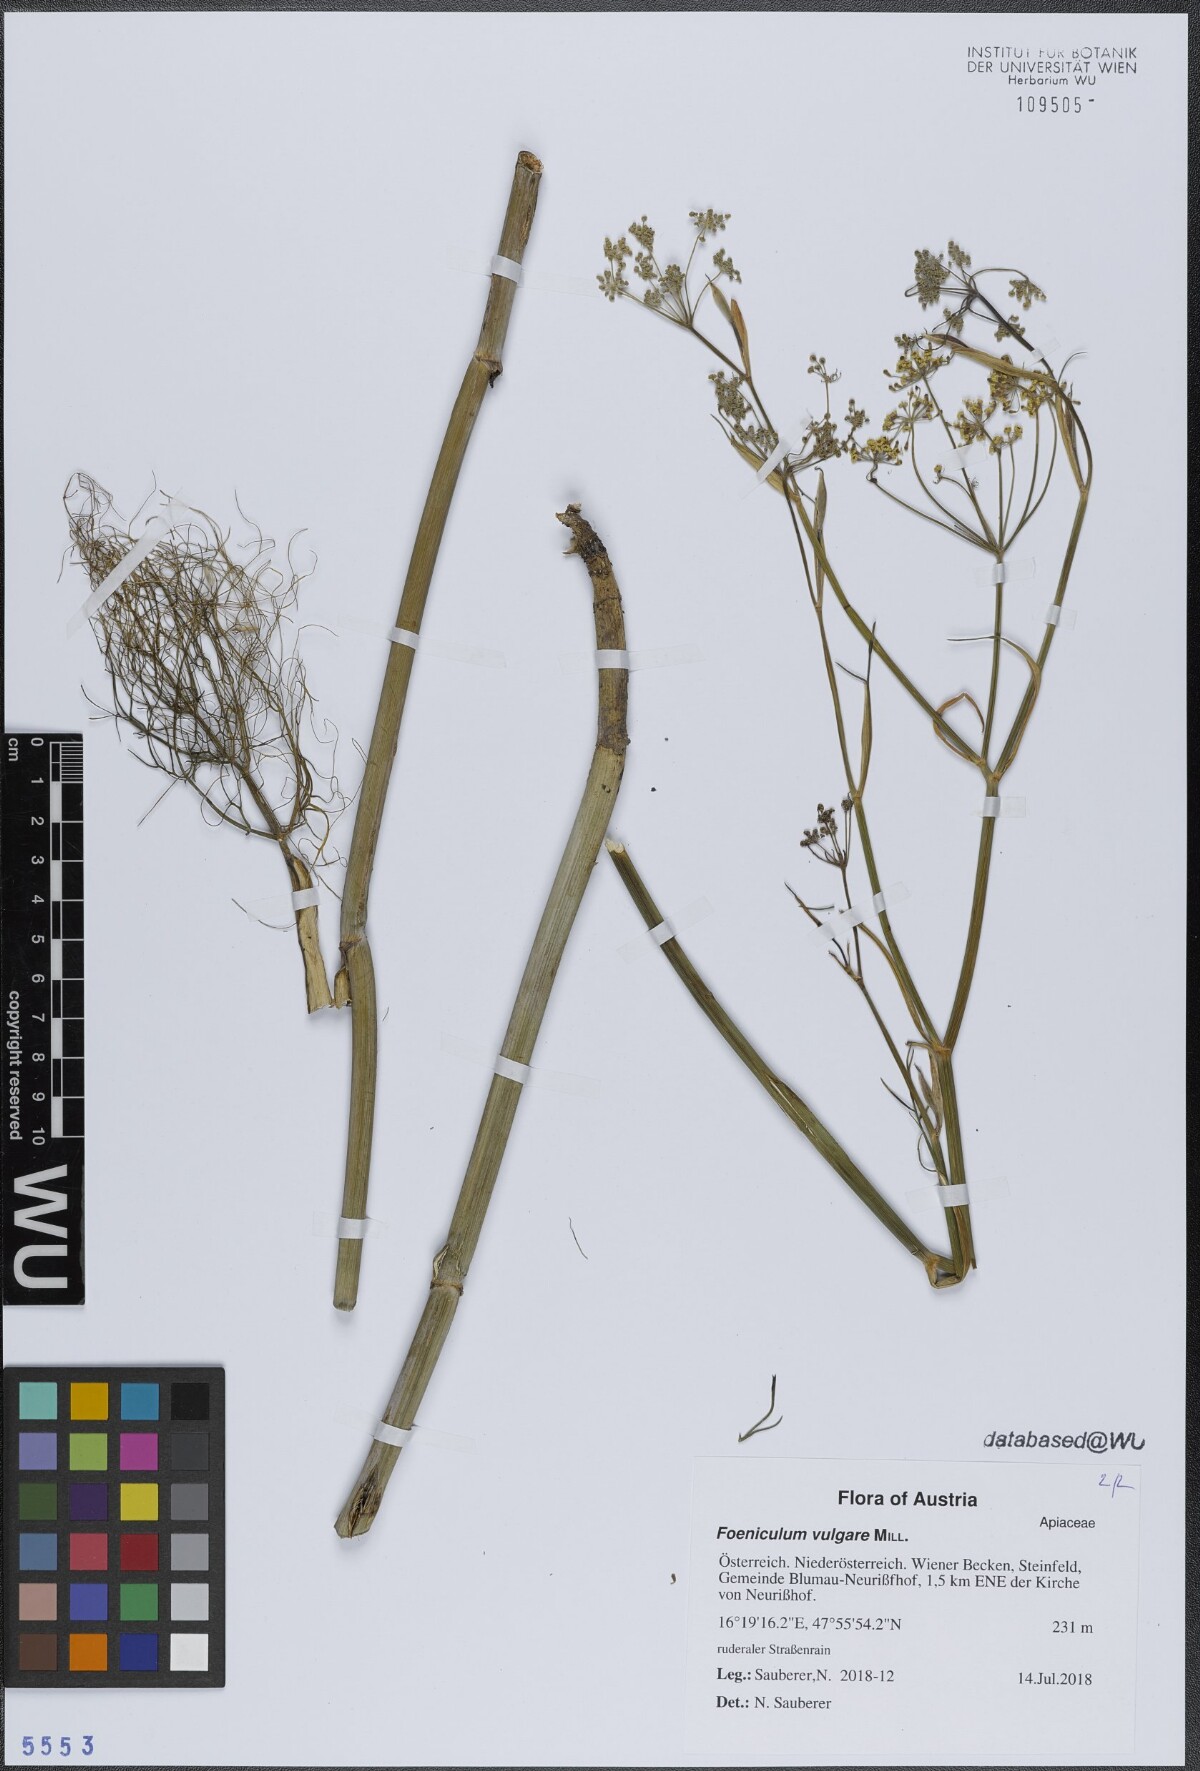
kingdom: Plantae
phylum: Tracheophyta
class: Magnoliopsida
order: Apiales
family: Apiaceae
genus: Foeniculum
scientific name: Foeniculum vulgare
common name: Fennel
